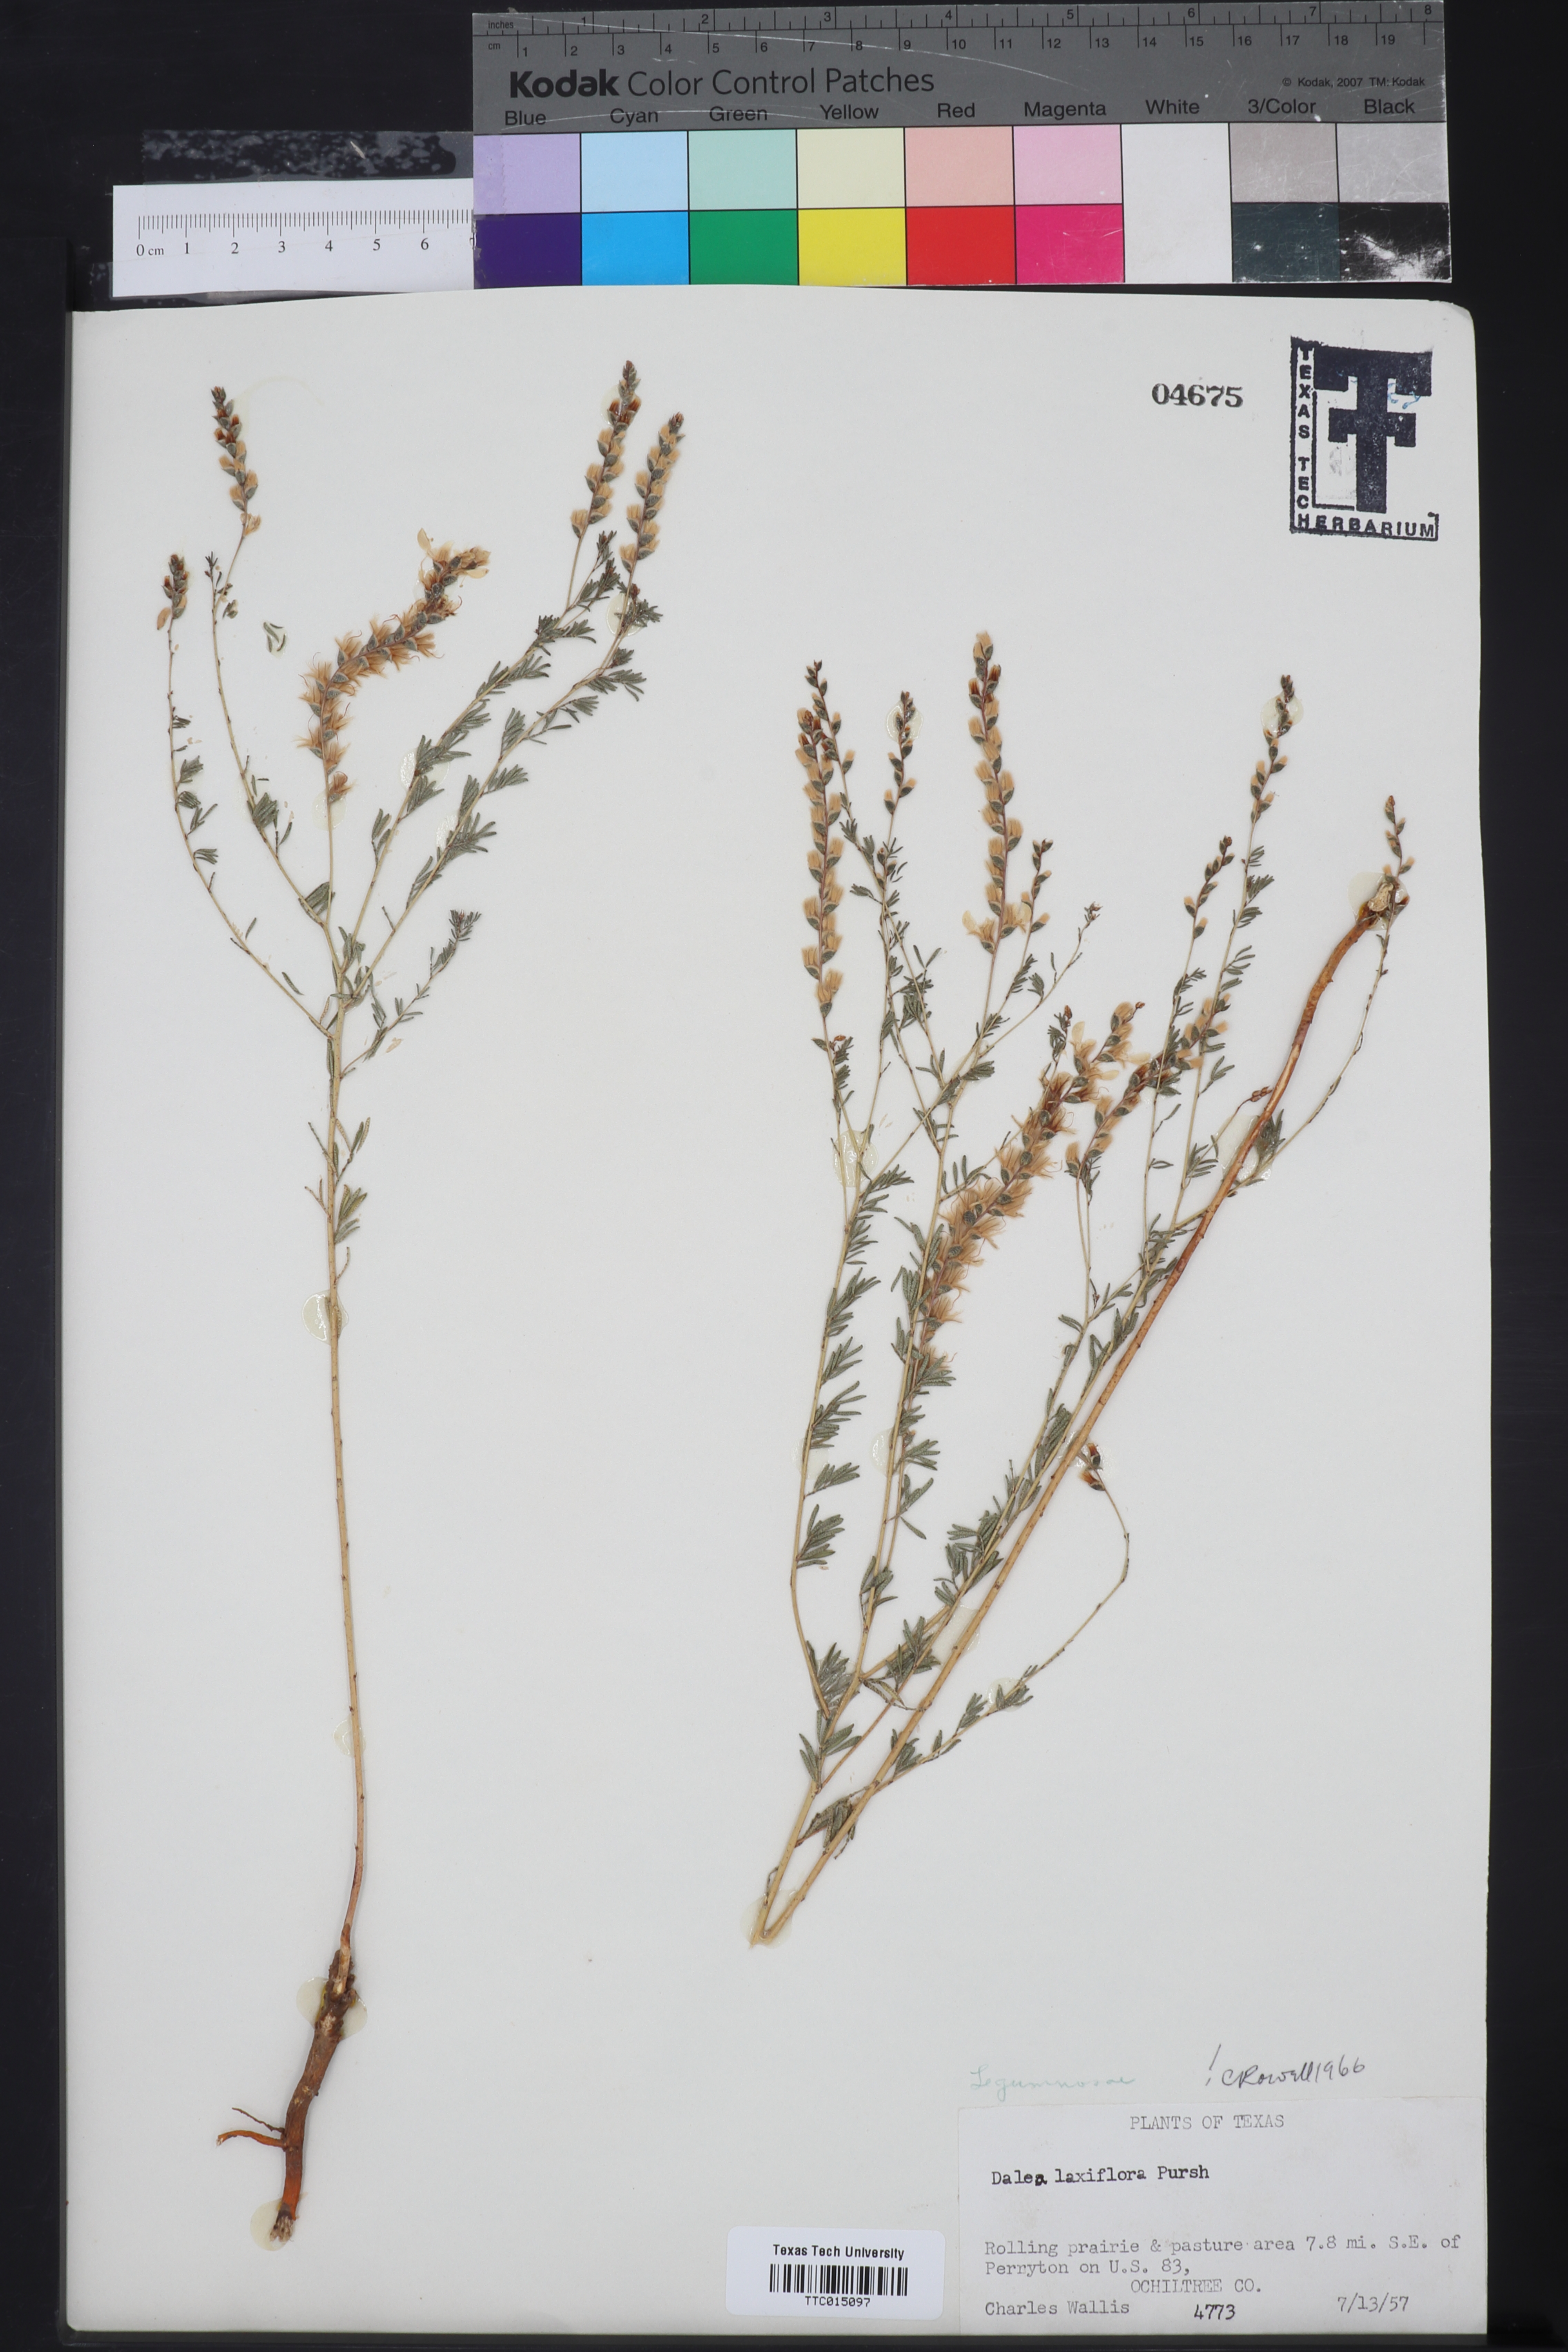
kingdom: Plantae
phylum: Tracheophyta
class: Magnoliopsida
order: Fabales
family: Fabaceae
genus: Dalea
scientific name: Dalea hegewischiana
